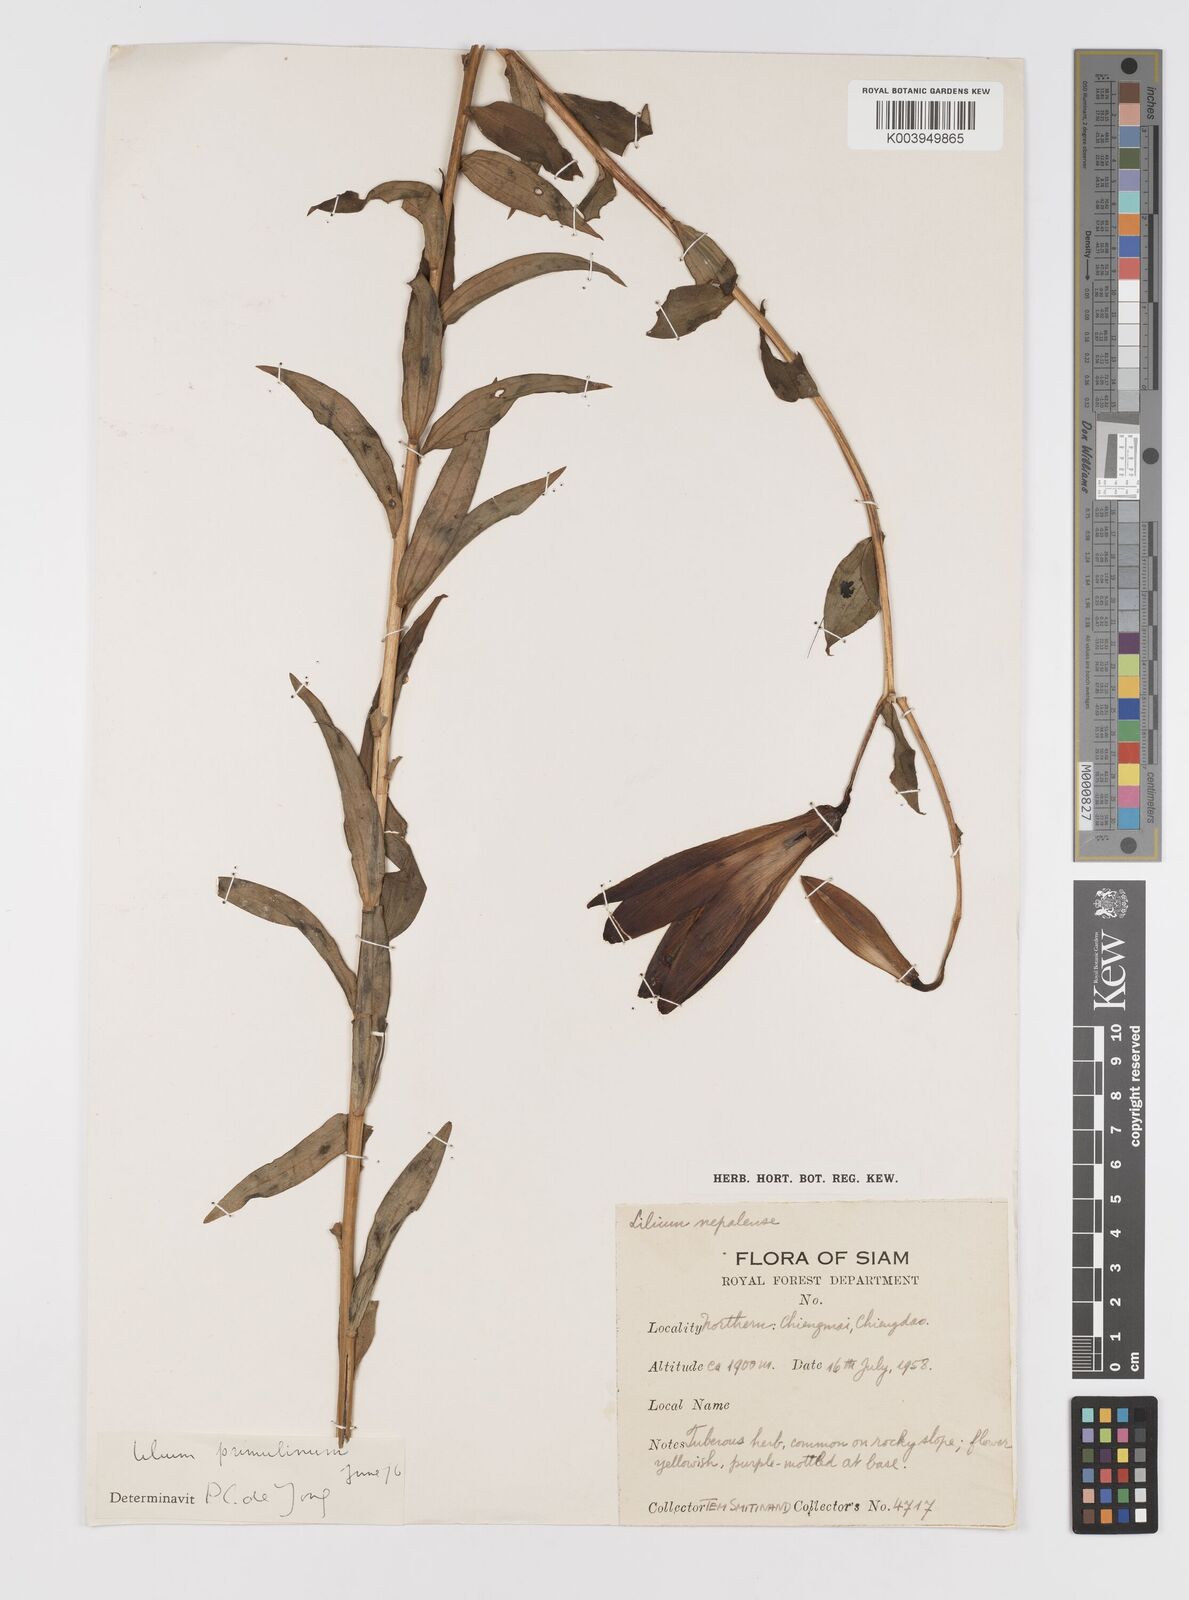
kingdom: Plantae
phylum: Tracheophyta
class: Liliopsida
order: Liliales
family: Liliaceae
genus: Lilium
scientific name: Lilium primulinum
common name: Ochre lily
